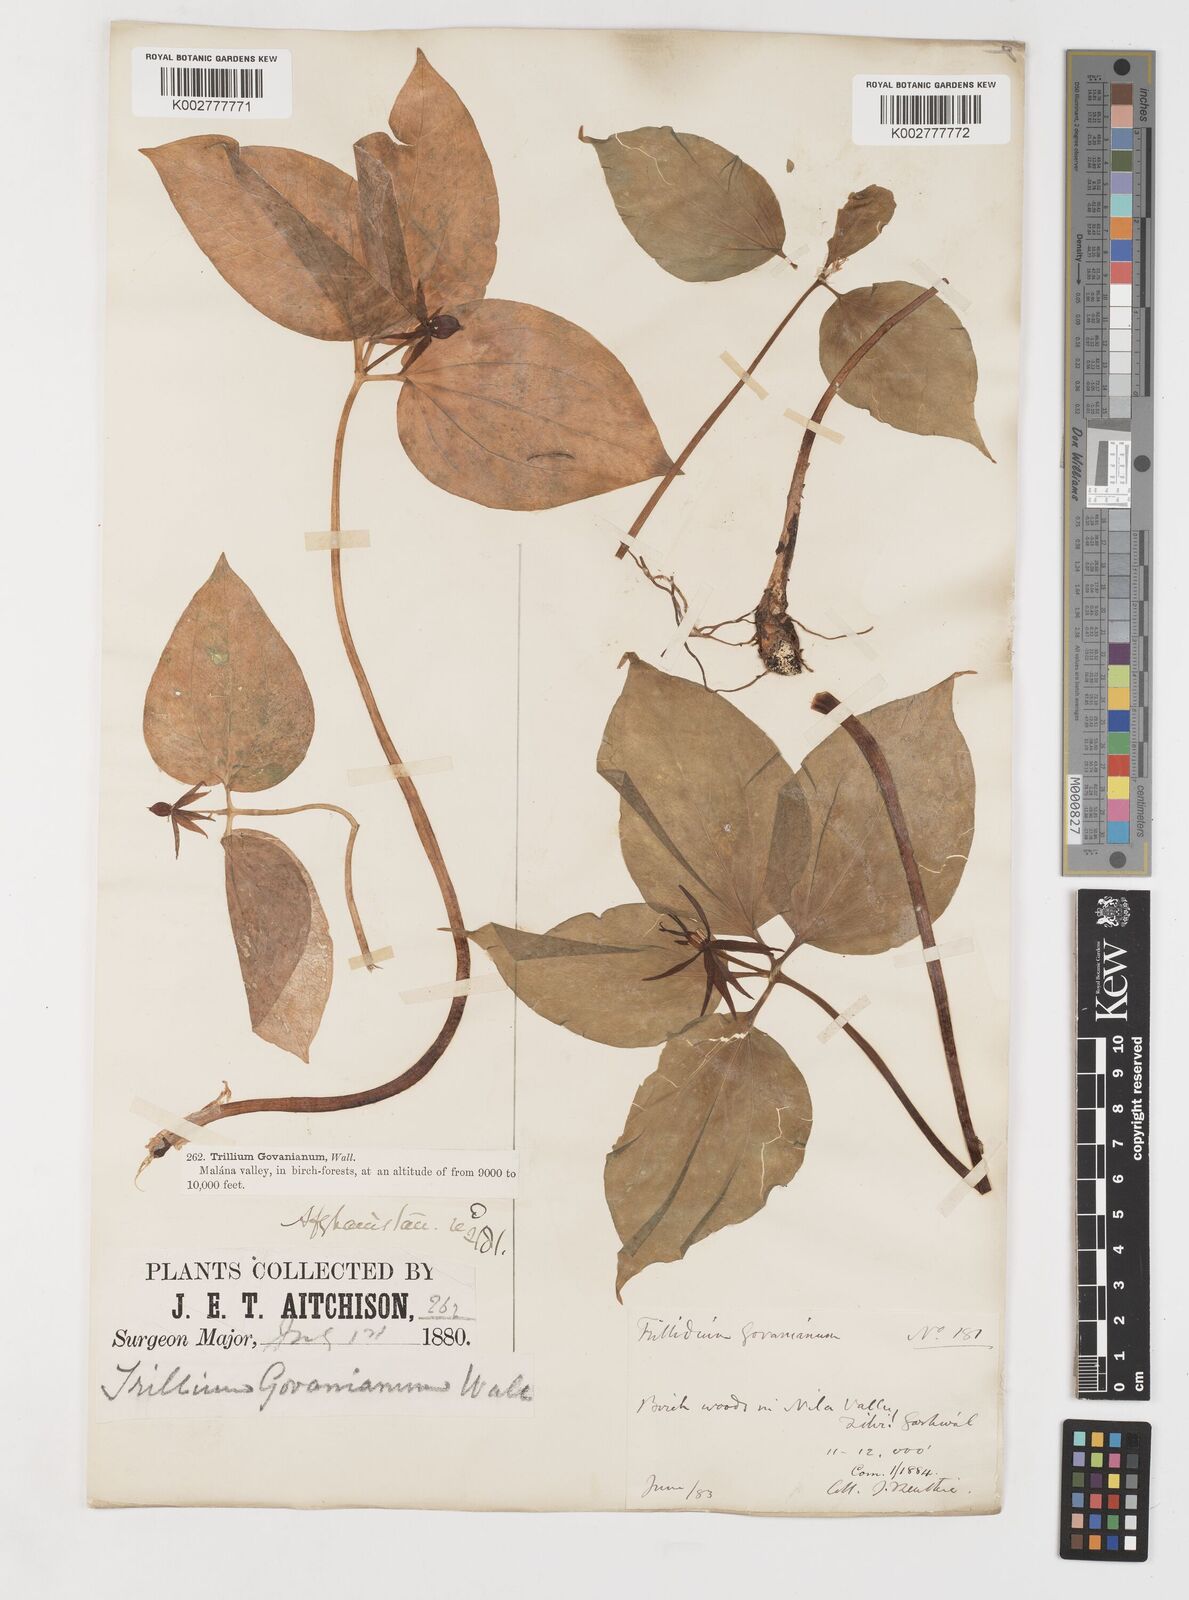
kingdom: Plantae
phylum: Tracheophyta
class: Liliopsida
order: Liliales
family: Melanthiaceae
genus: Trillium
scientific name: Trillium govanianum
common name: Himalayan trillium
